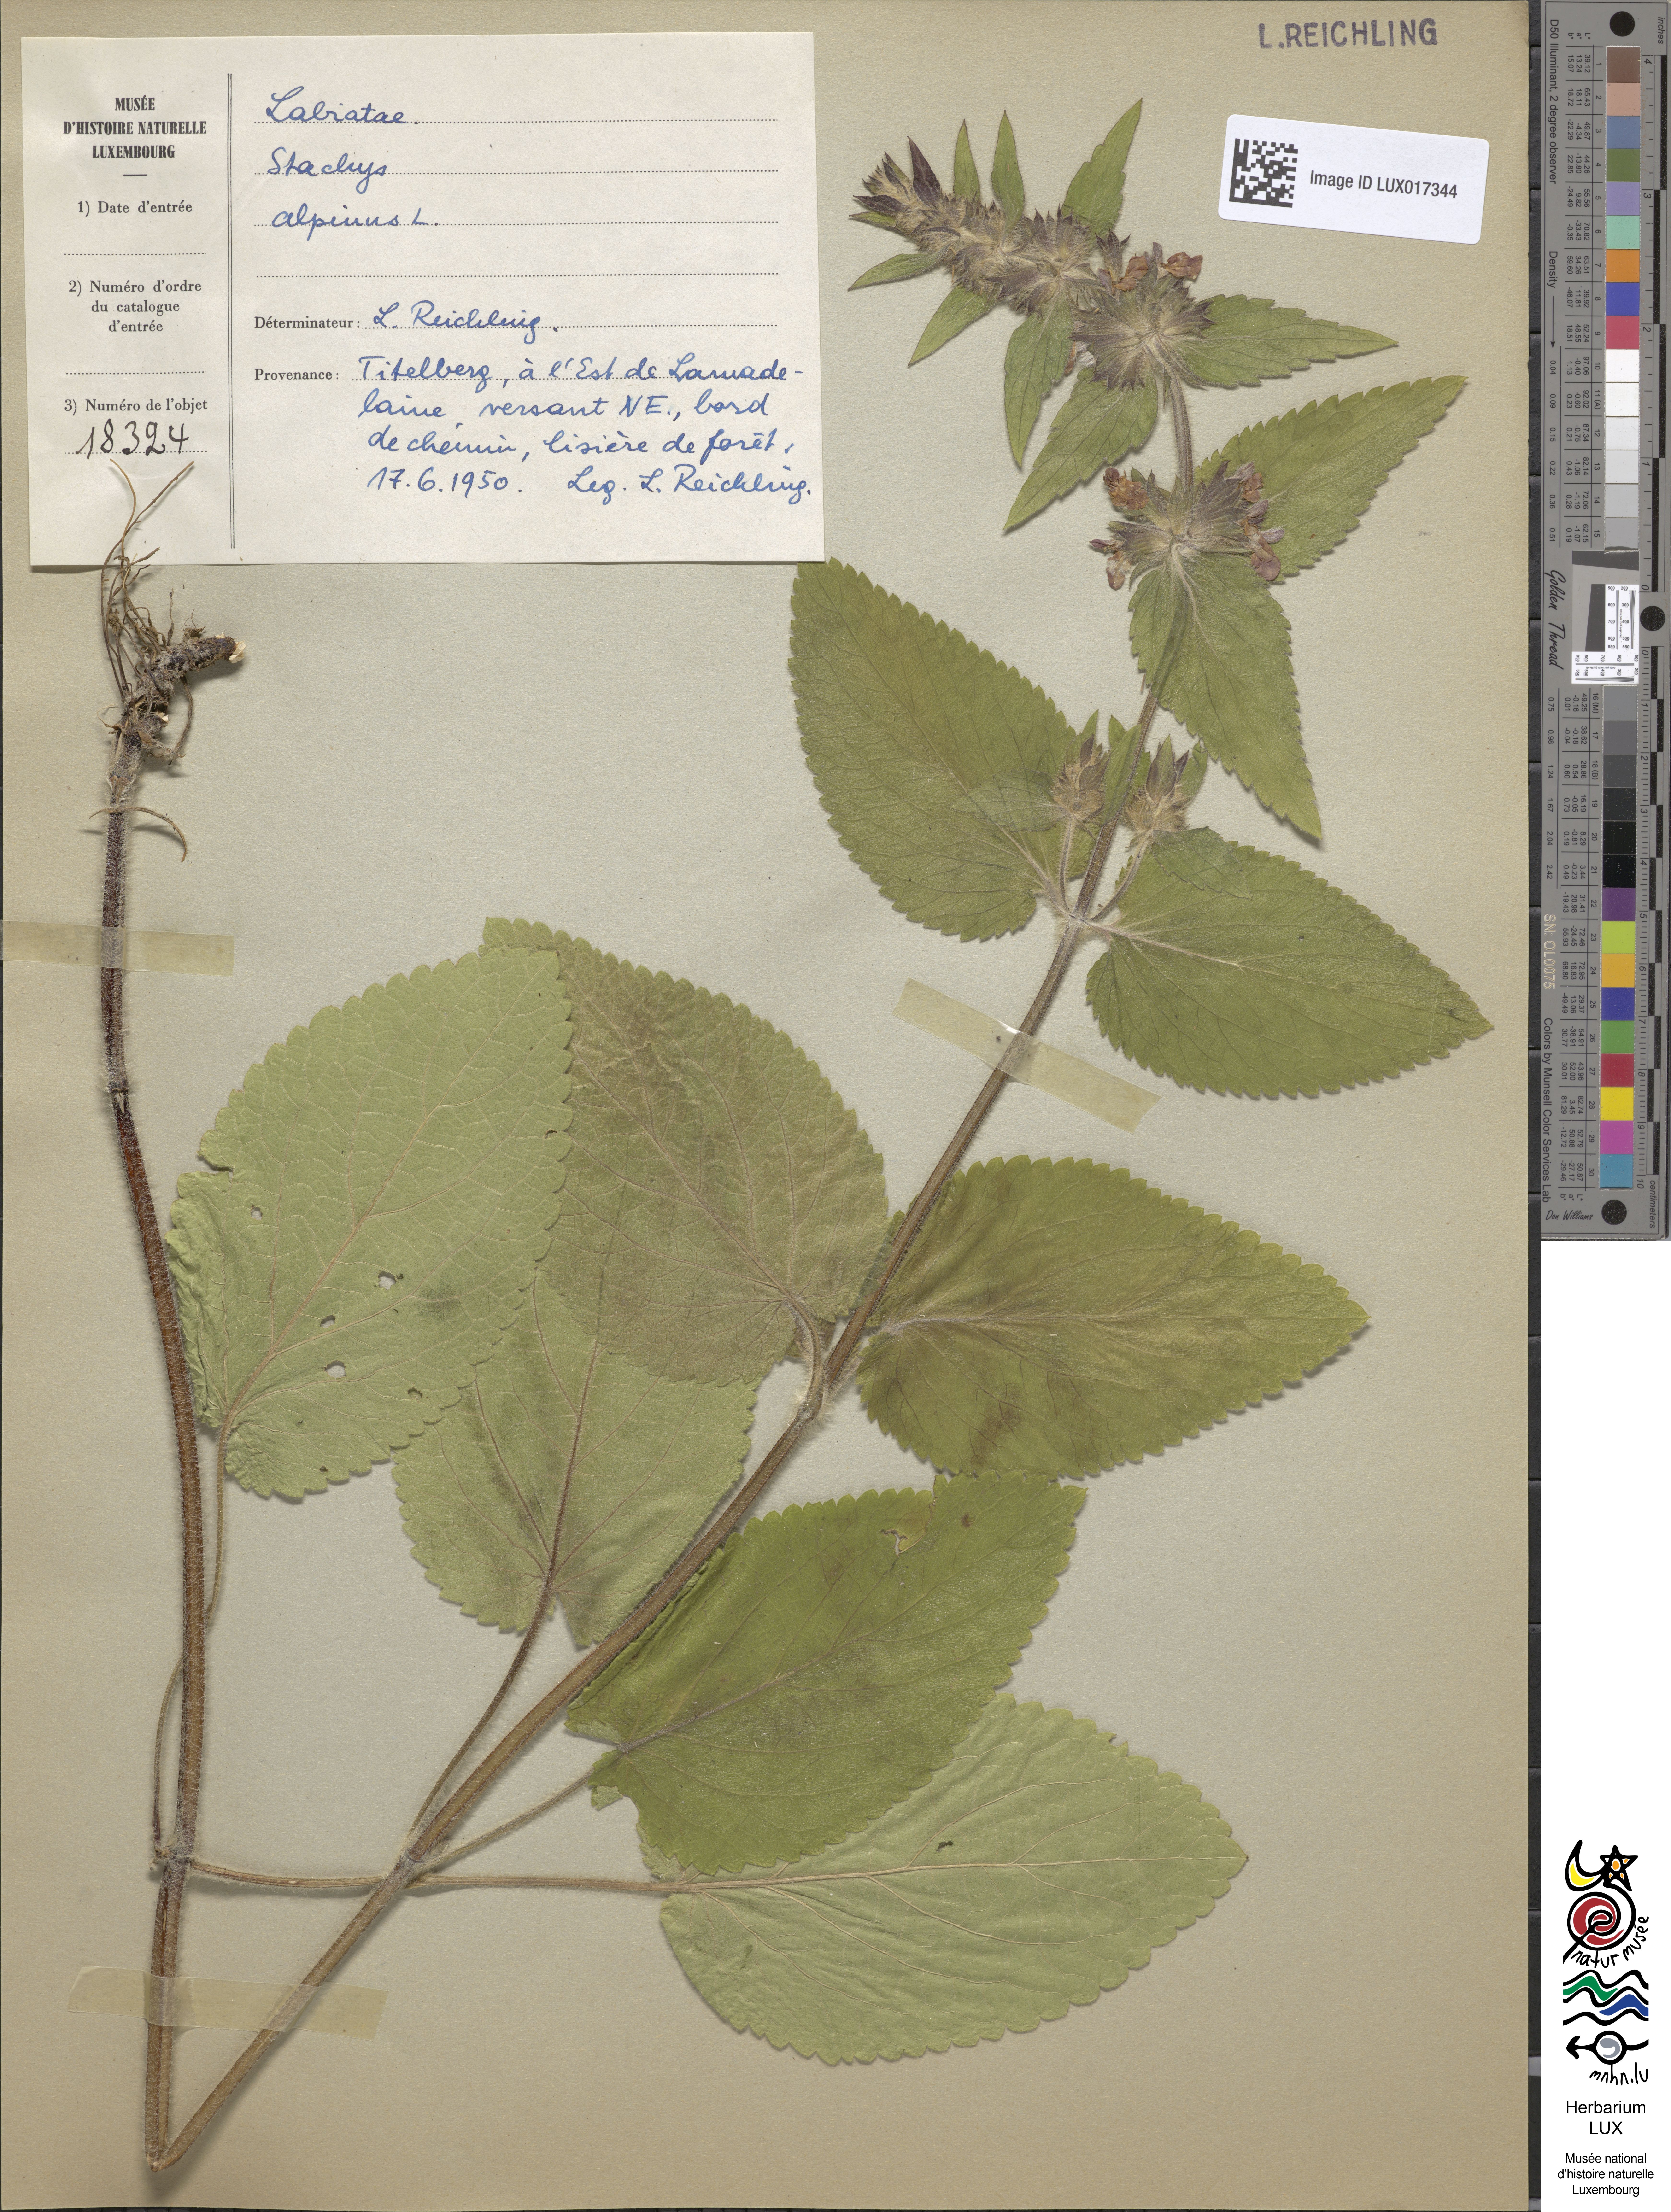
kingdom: Plantae
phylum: Tracheophyta
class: Magnoliopsida
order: Lamiales
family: Lamiaceae
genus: Stachys
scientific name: Stachys alpina
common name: Limestone woundwort
